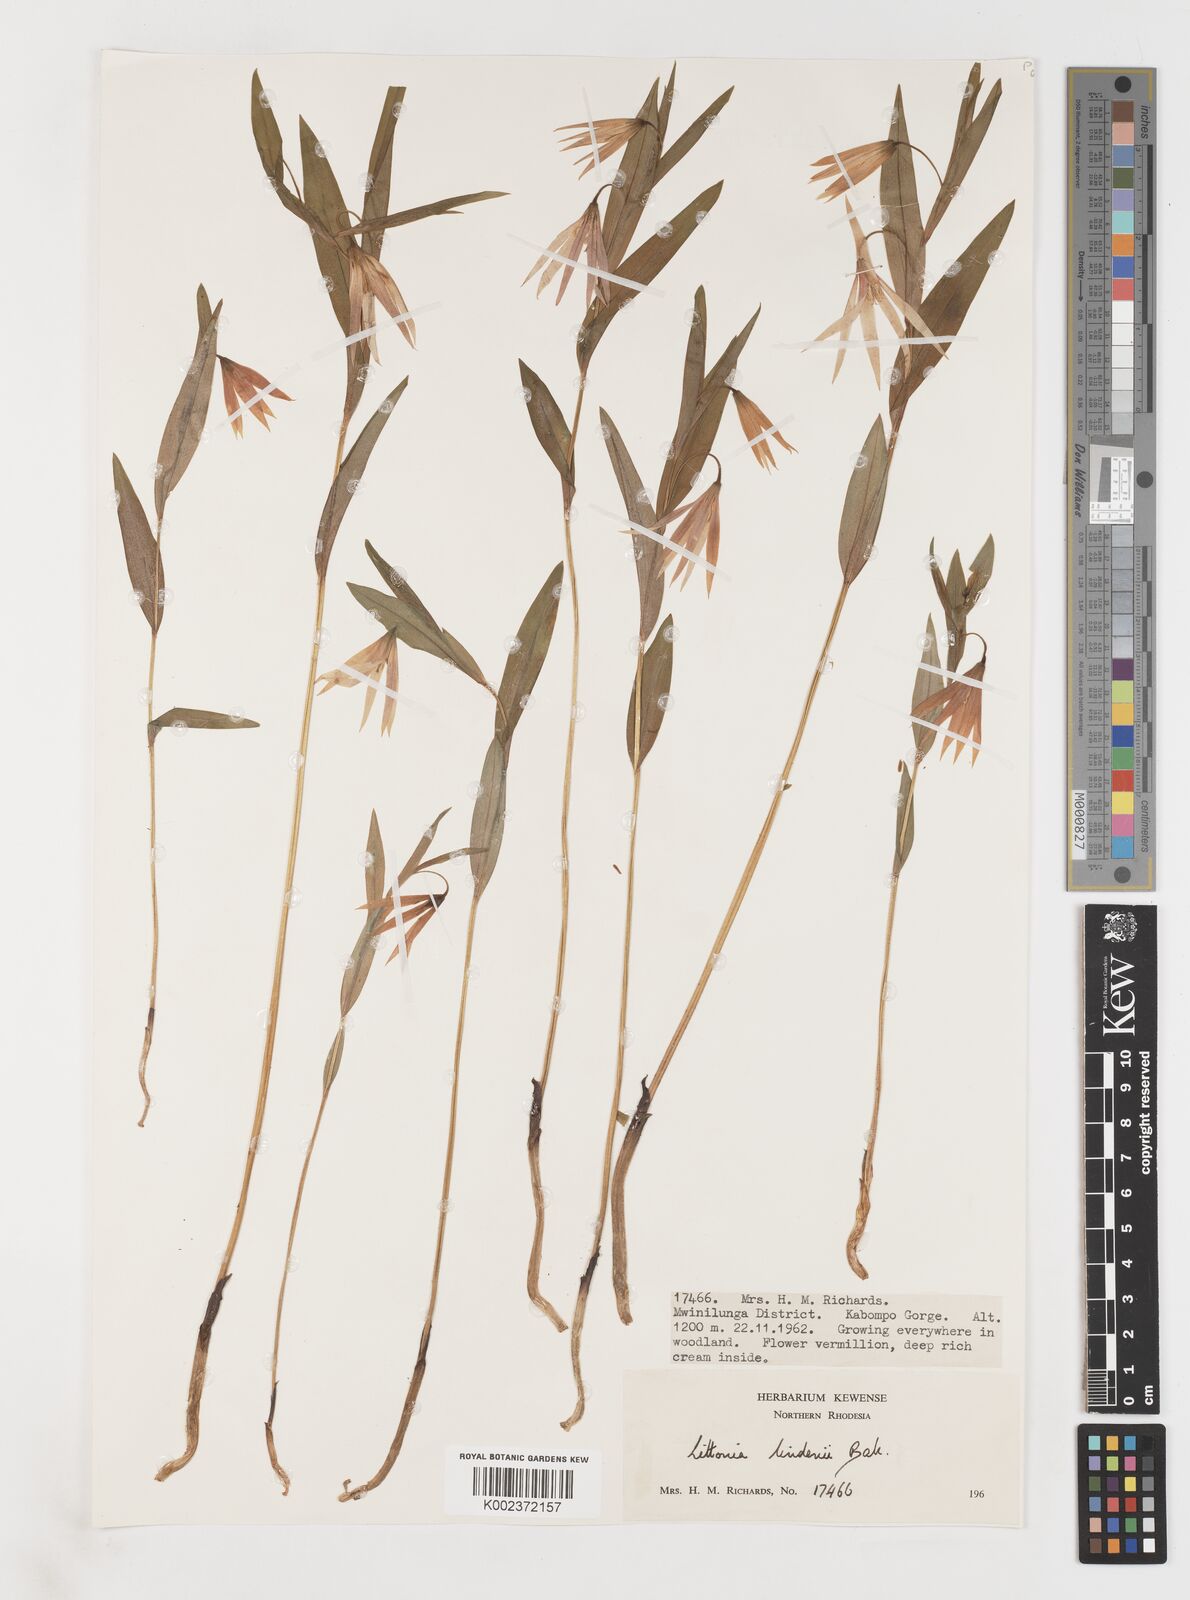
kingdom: Plantae
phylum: Tracheophyta
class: Liliopsida
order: Liliales
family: Colchicaceae
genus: Gloriosa
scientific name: Gloriosa lindenii
